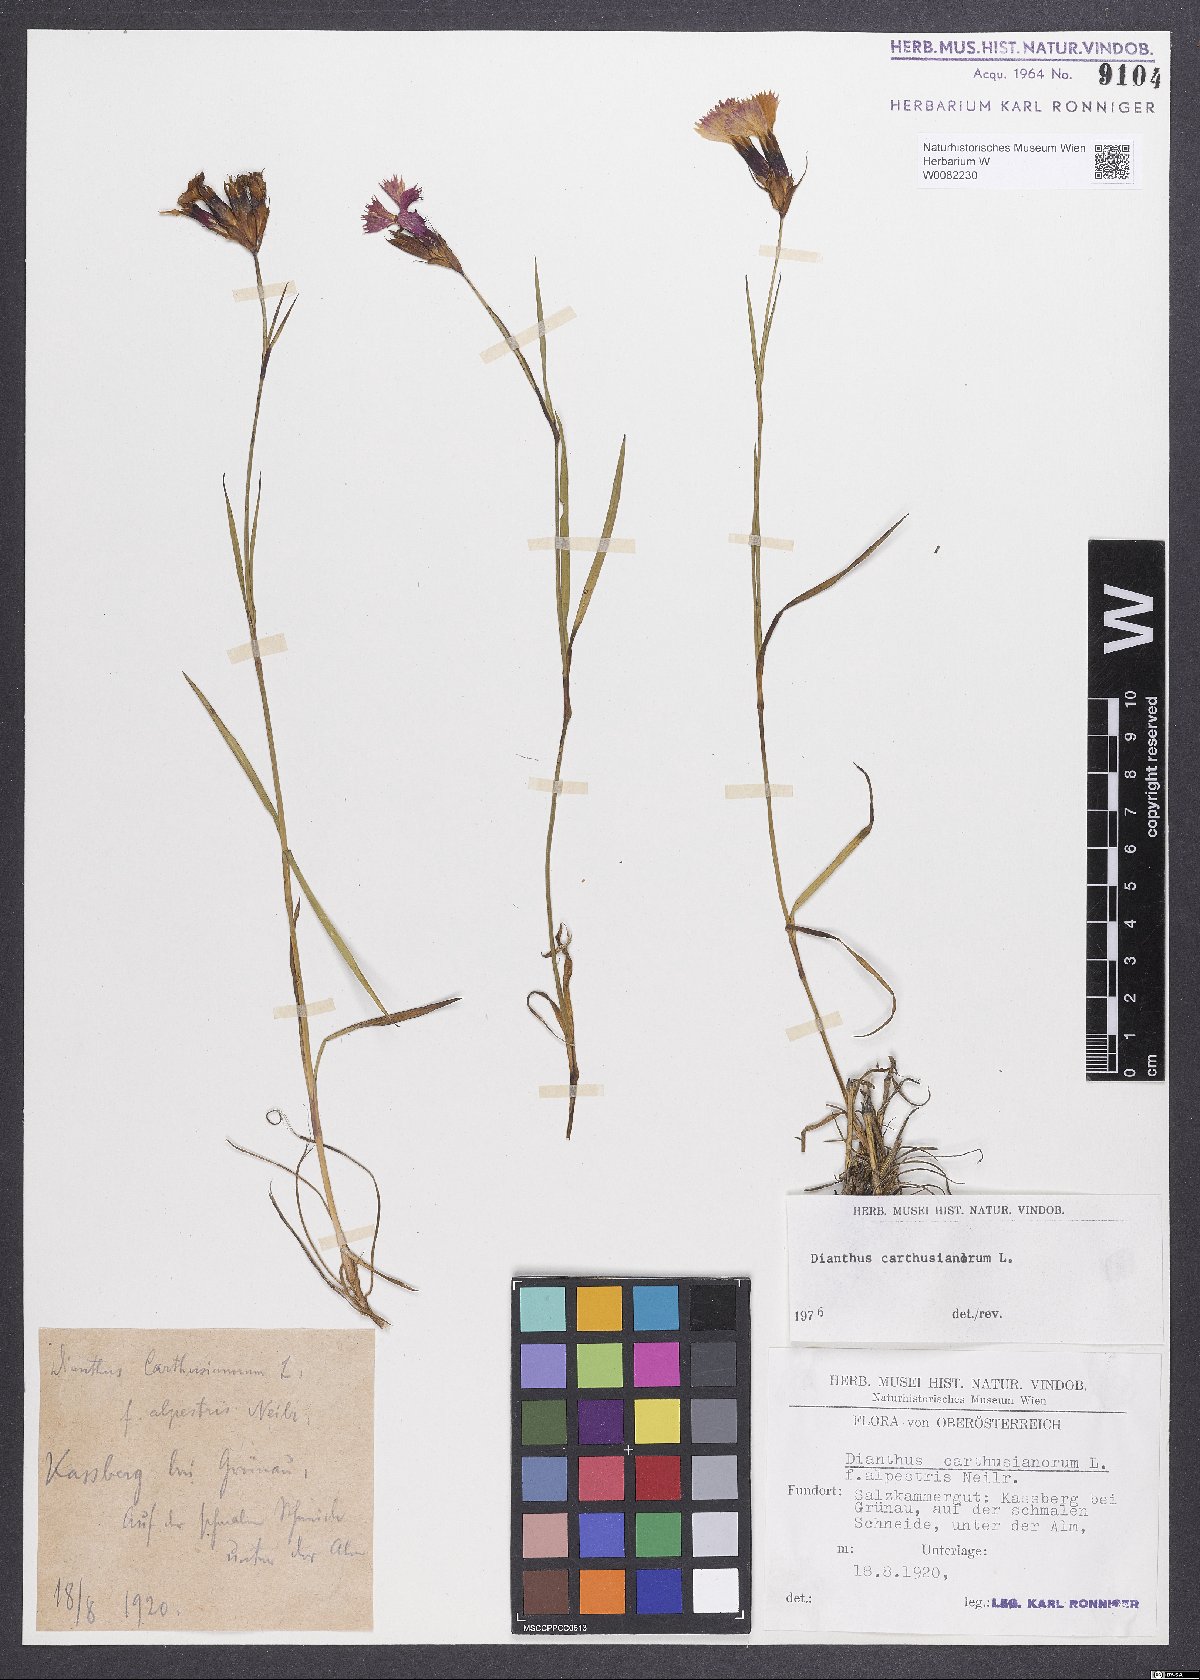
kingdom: Plantae
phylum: Tracheophyta
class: Magnoliopsida
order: Caryophyllales
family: Caryophyllaceae
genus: Dianthus
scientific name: Dianthus carthusianorum
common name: Carthusian pink
